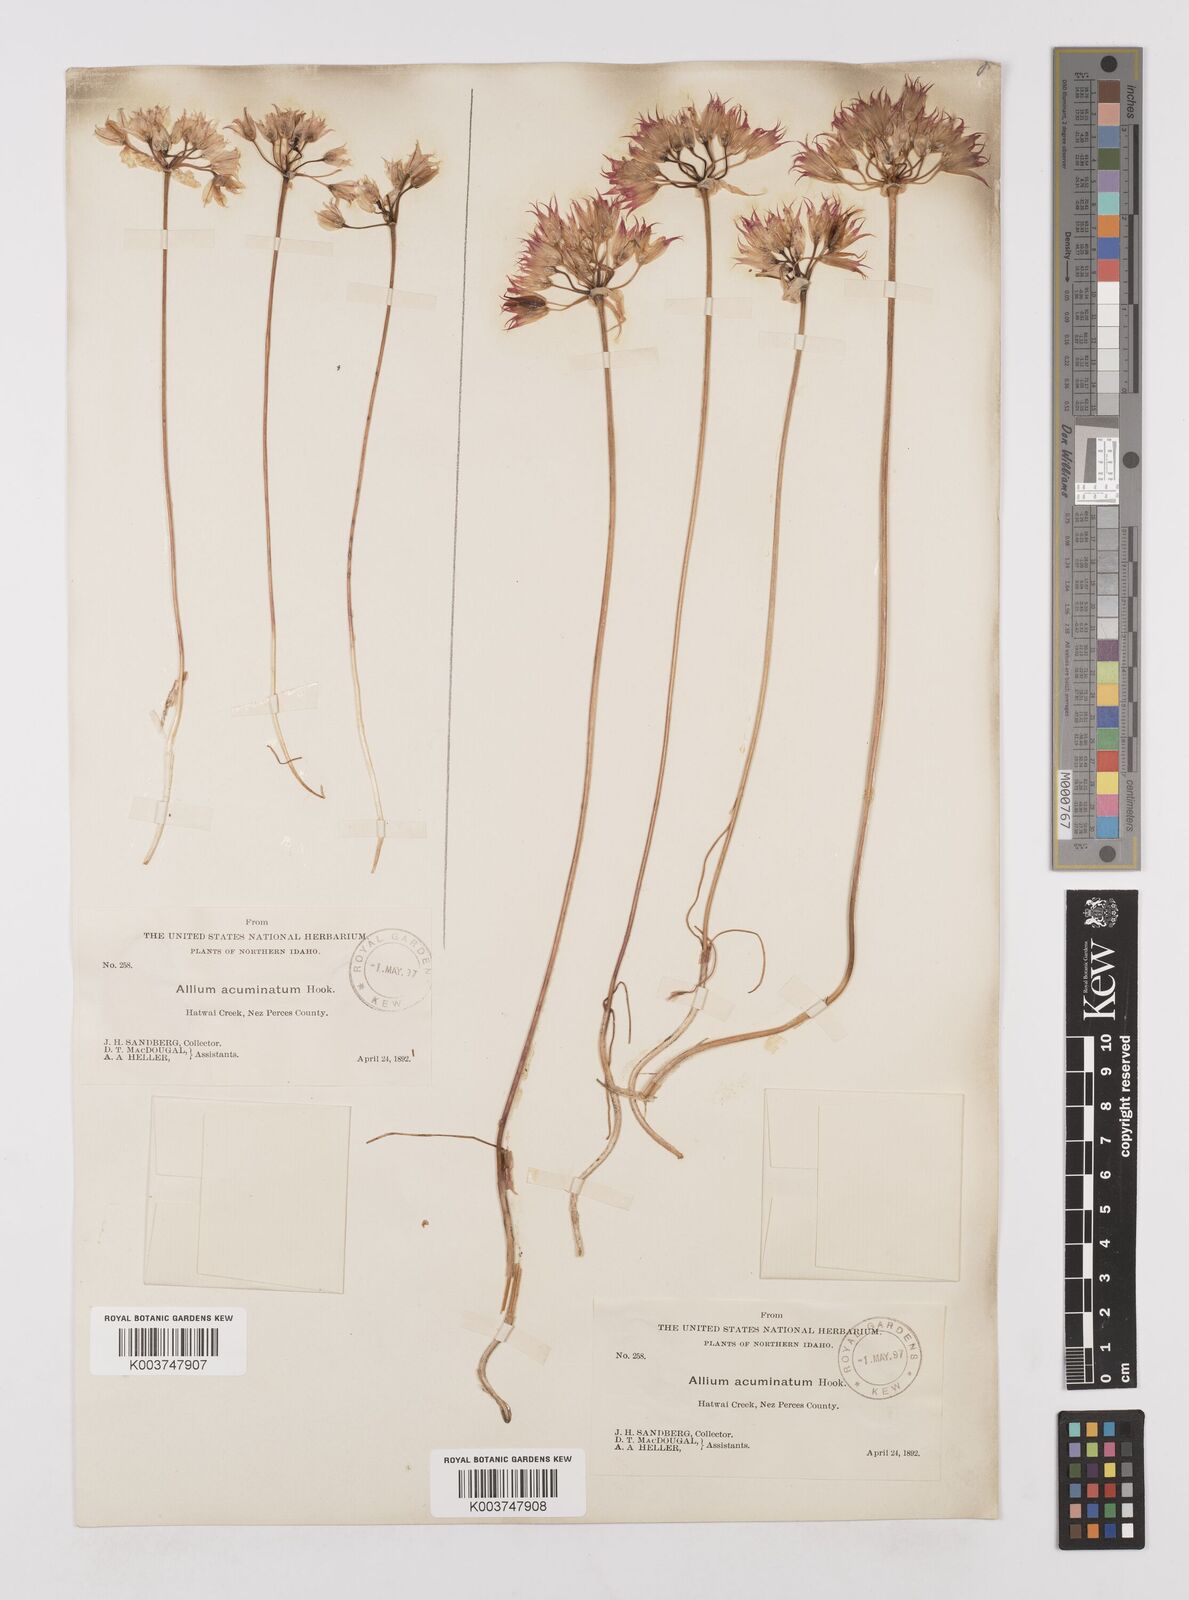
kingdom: Plantae
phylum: Tracheophyta
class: Liliopsida
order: Asparagales
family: Amaryllidaceae
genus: Allium
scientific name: Allium acuminatum
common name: Hooker's onion
